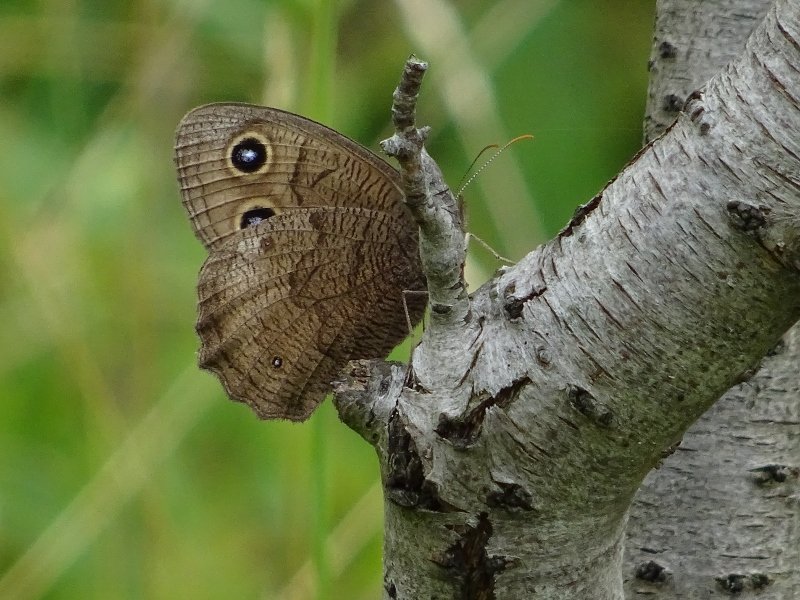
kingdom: Animalia
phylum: Arthropoda
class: Insecta
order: Lepidoptera
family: Nymphalidae
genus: Cercyonis
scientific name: Cercyonis pegala
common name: Common Wood-Nymph
